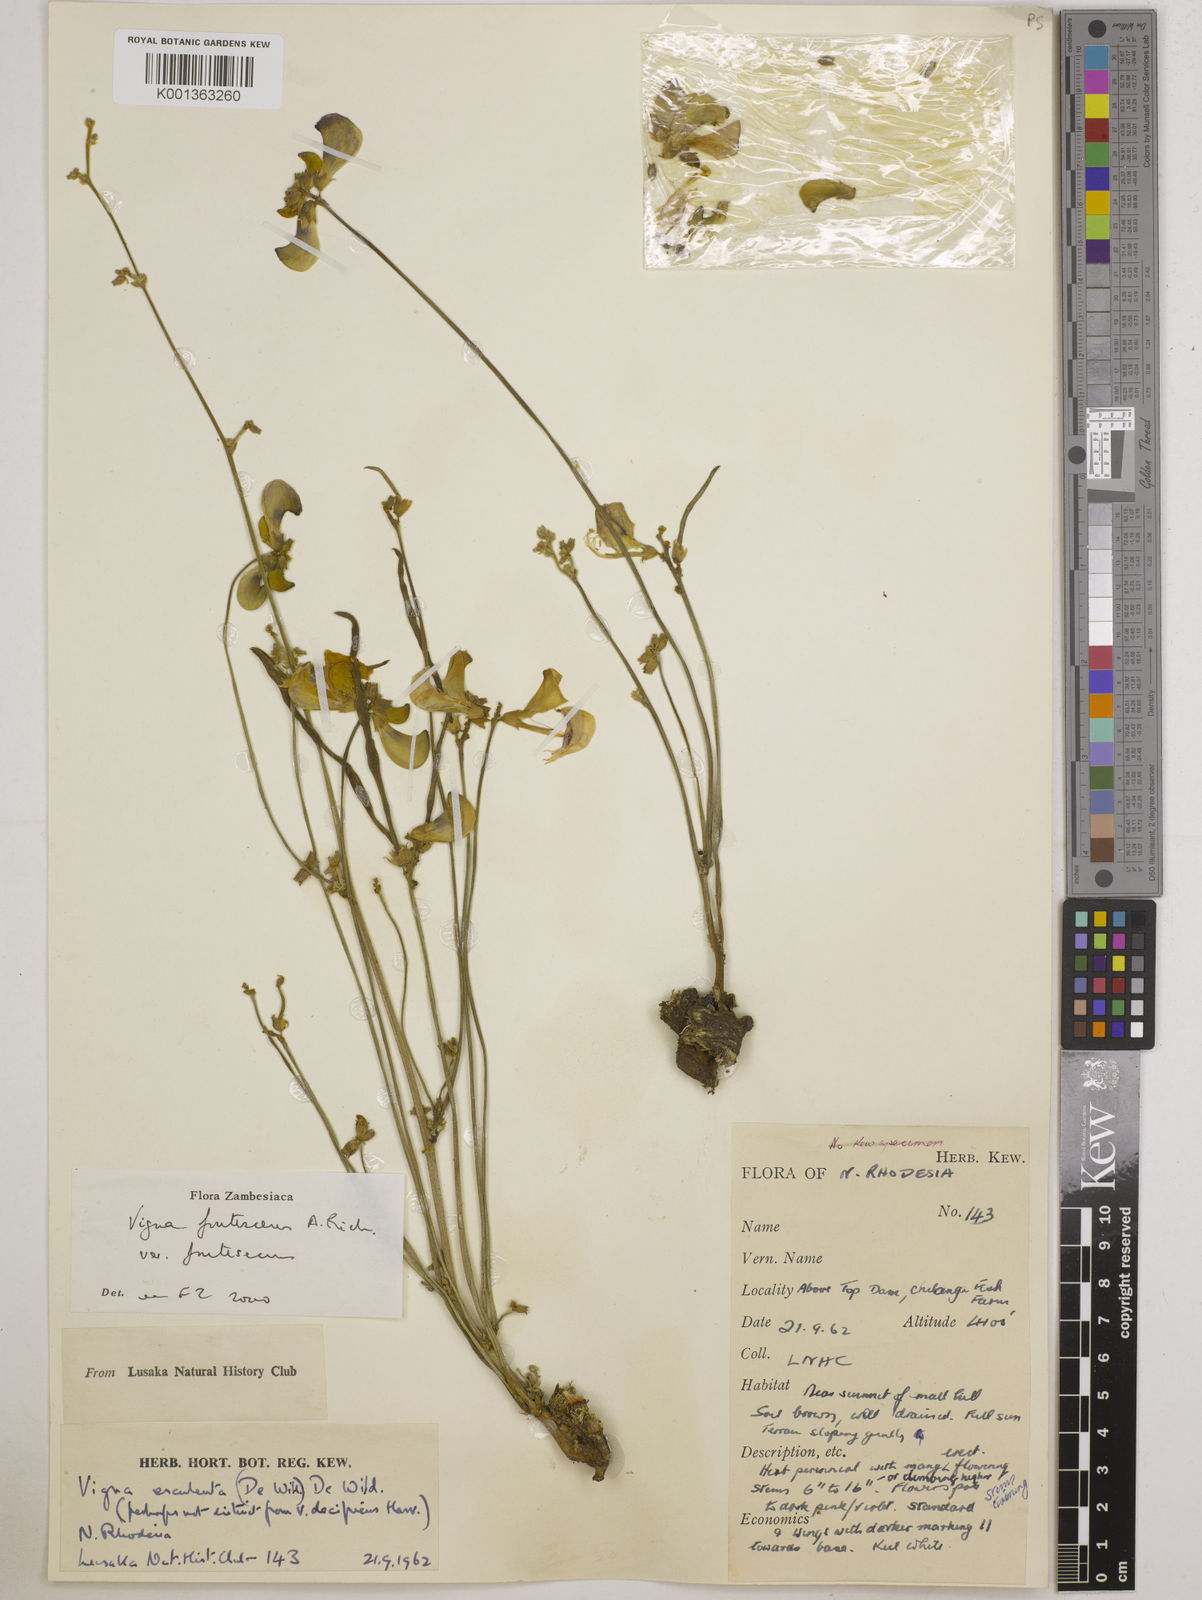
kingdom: Plantae
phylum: Tracheophyta
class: Magnoliopsida
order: Fabales
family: Fabaceae
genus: Vigna
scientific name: Vigna
